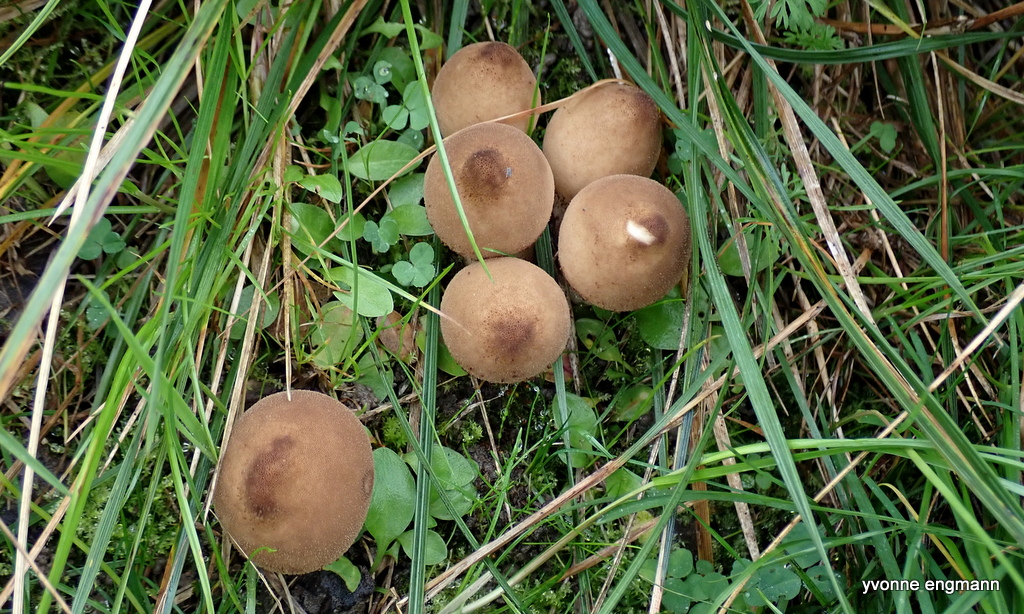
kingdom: Fungi
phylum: Basidiomycota
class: Agaricomycetes
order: Agaricales
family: Lycoperdaceae
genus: Apioperdon
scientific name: Apioperdon pyriforme
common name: pære-støvbold
